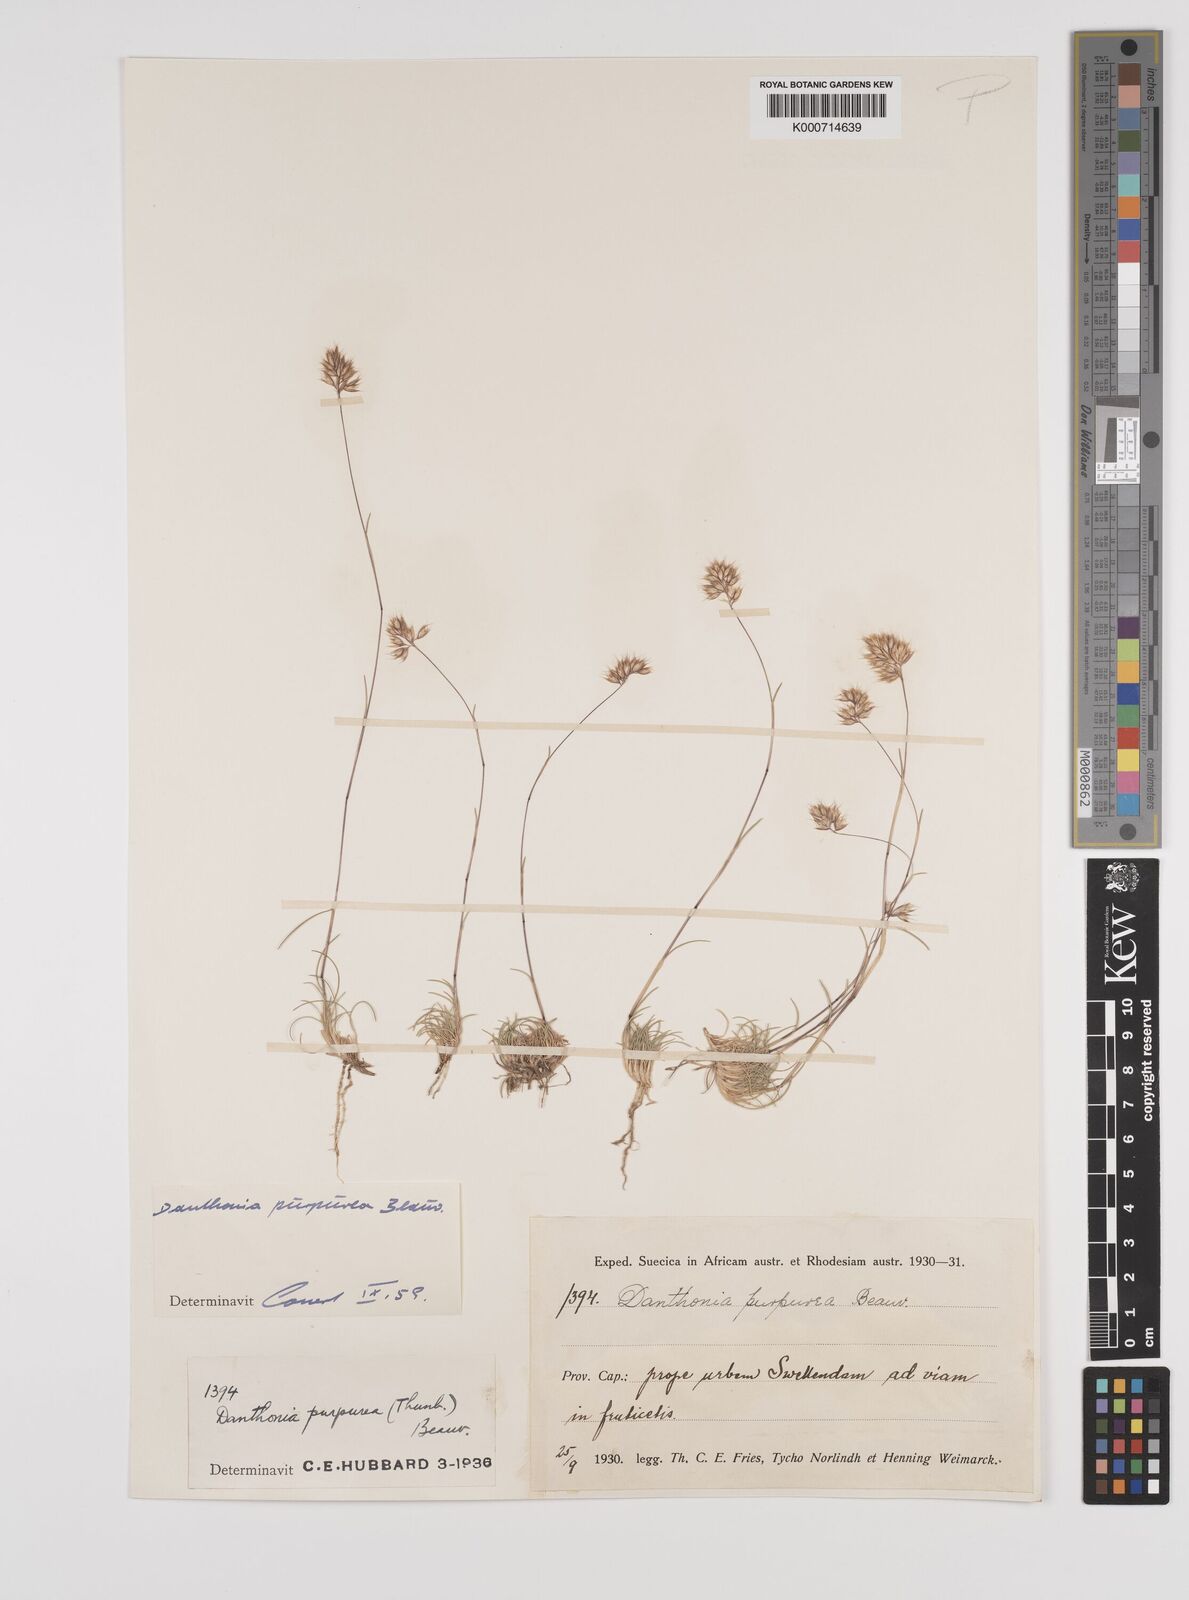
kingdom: Plantae
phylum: Tracheophyta
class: Liliopsida
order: Poales
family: Poaceae
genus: Rytidosperma
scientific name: Rytidosperma
